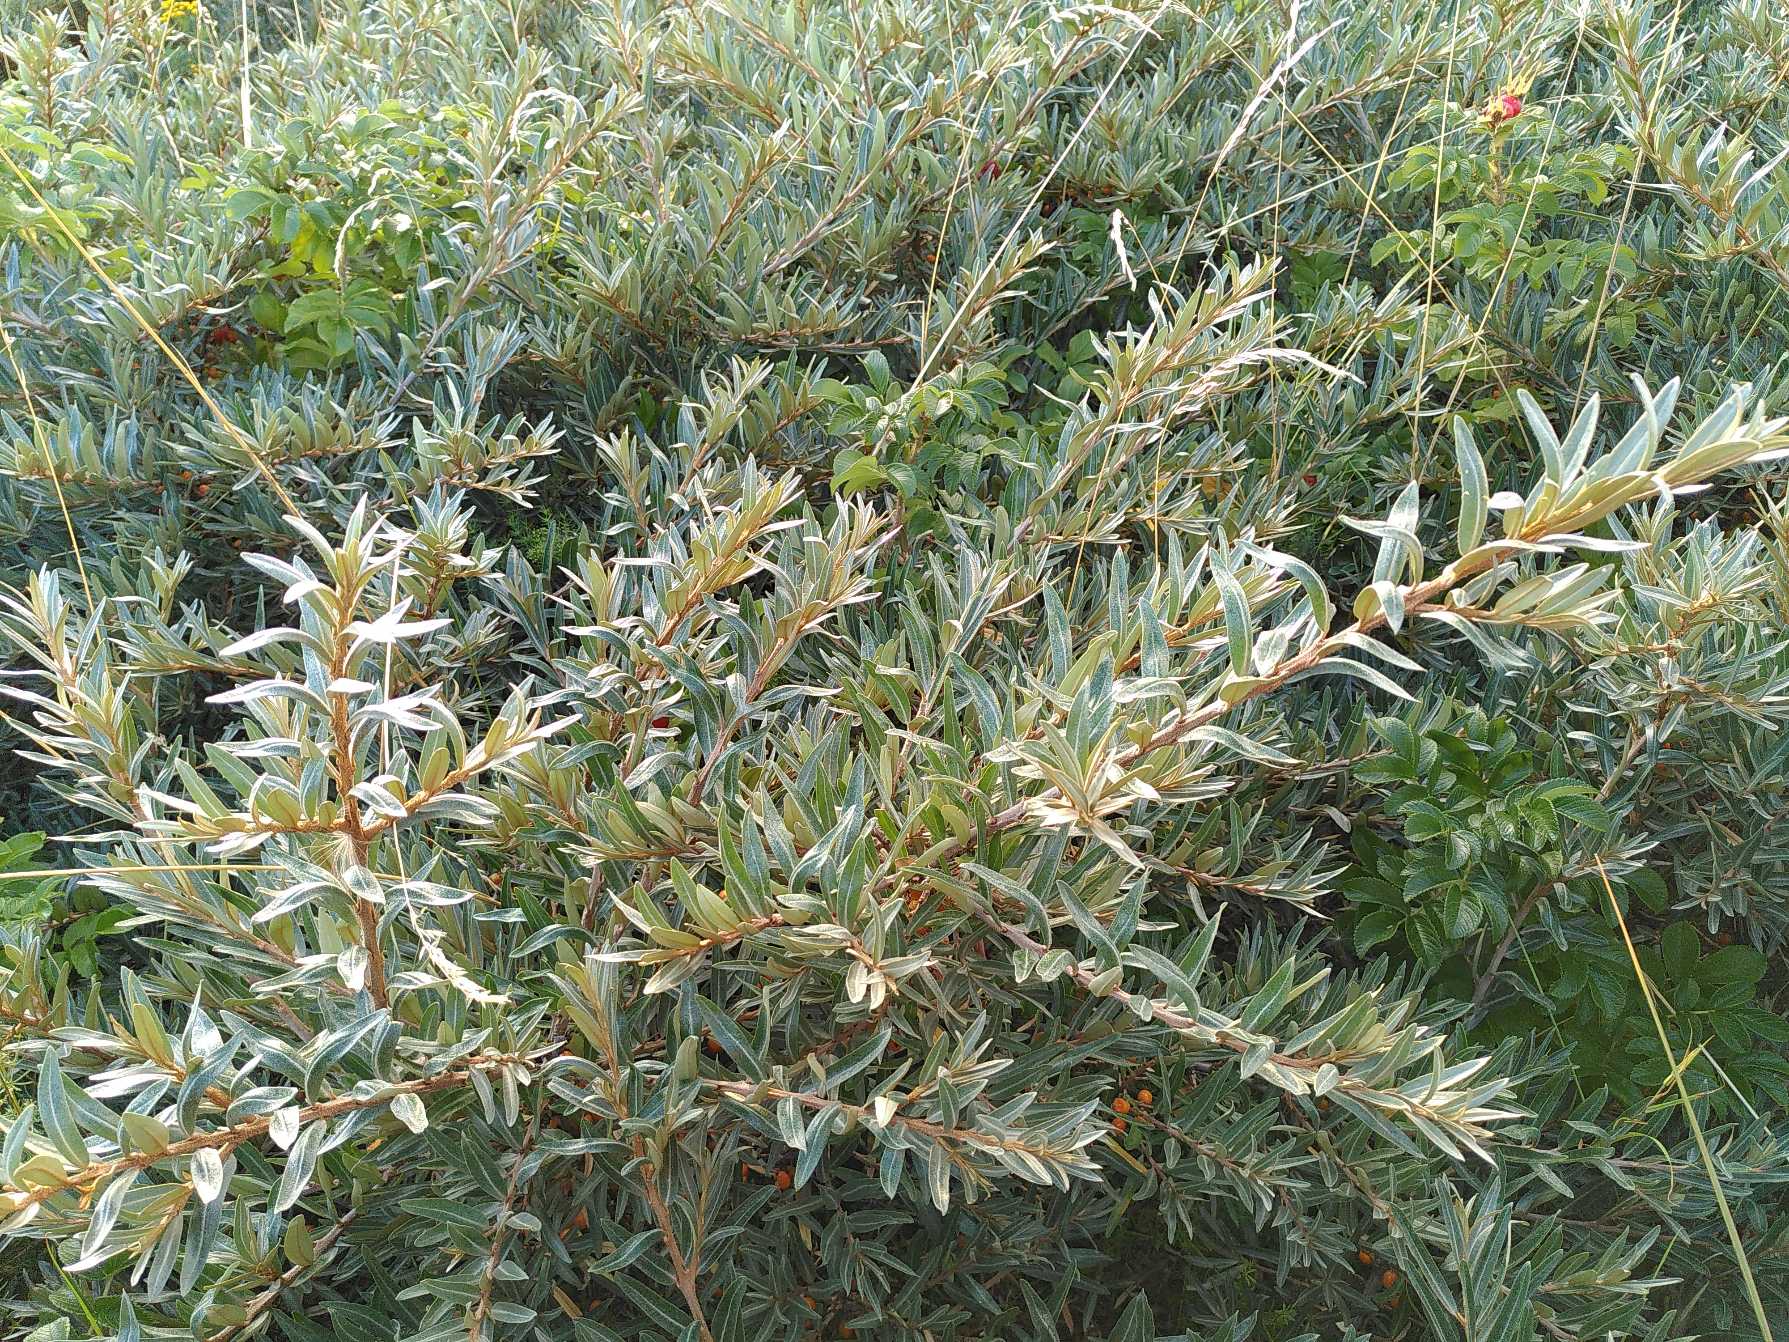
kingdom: Plantae
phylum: Tracheophyta
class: Magnoliopsida
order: Rosales
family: Elaeagnaceae
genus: Hippophae
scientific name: Hippophae rhamnoides
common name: Havtorn
